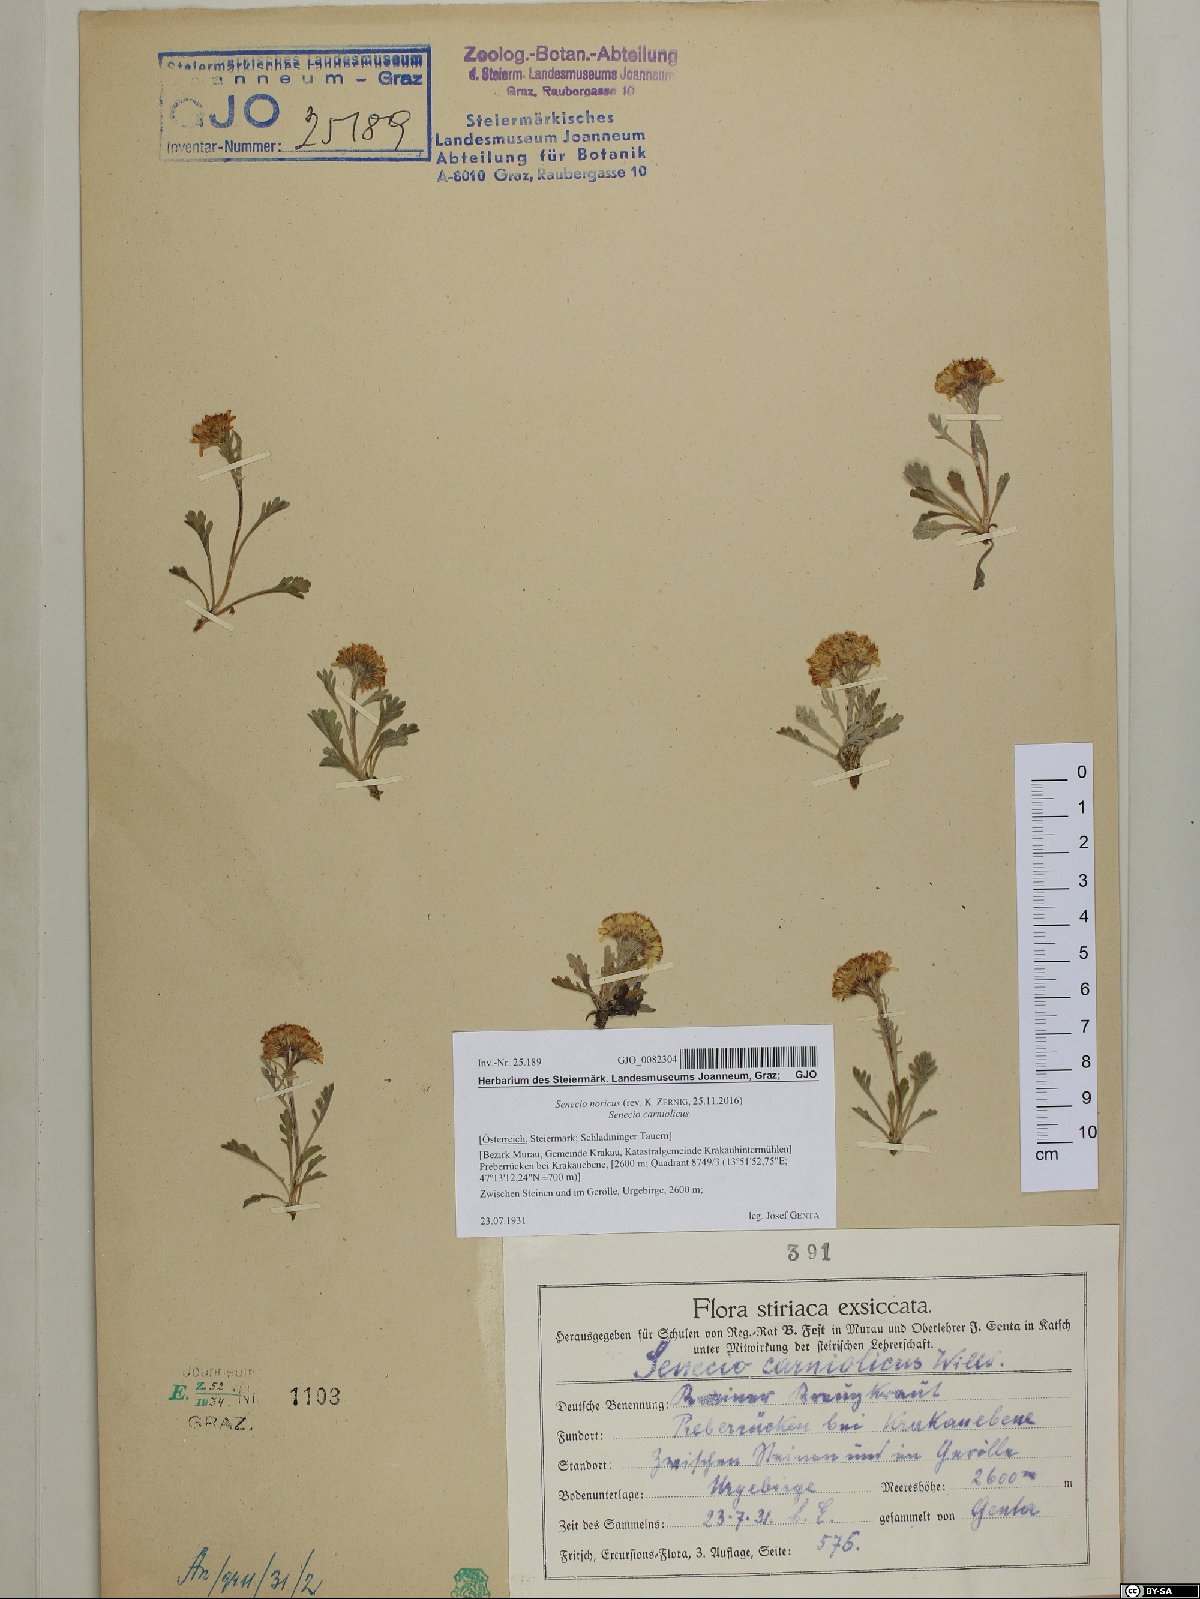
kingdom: Plantae
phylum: Tracheophyta
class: Magnoliopsida
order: Asterales
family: Asteraceae
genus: Jacobaea
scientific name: Jacobaea norica
